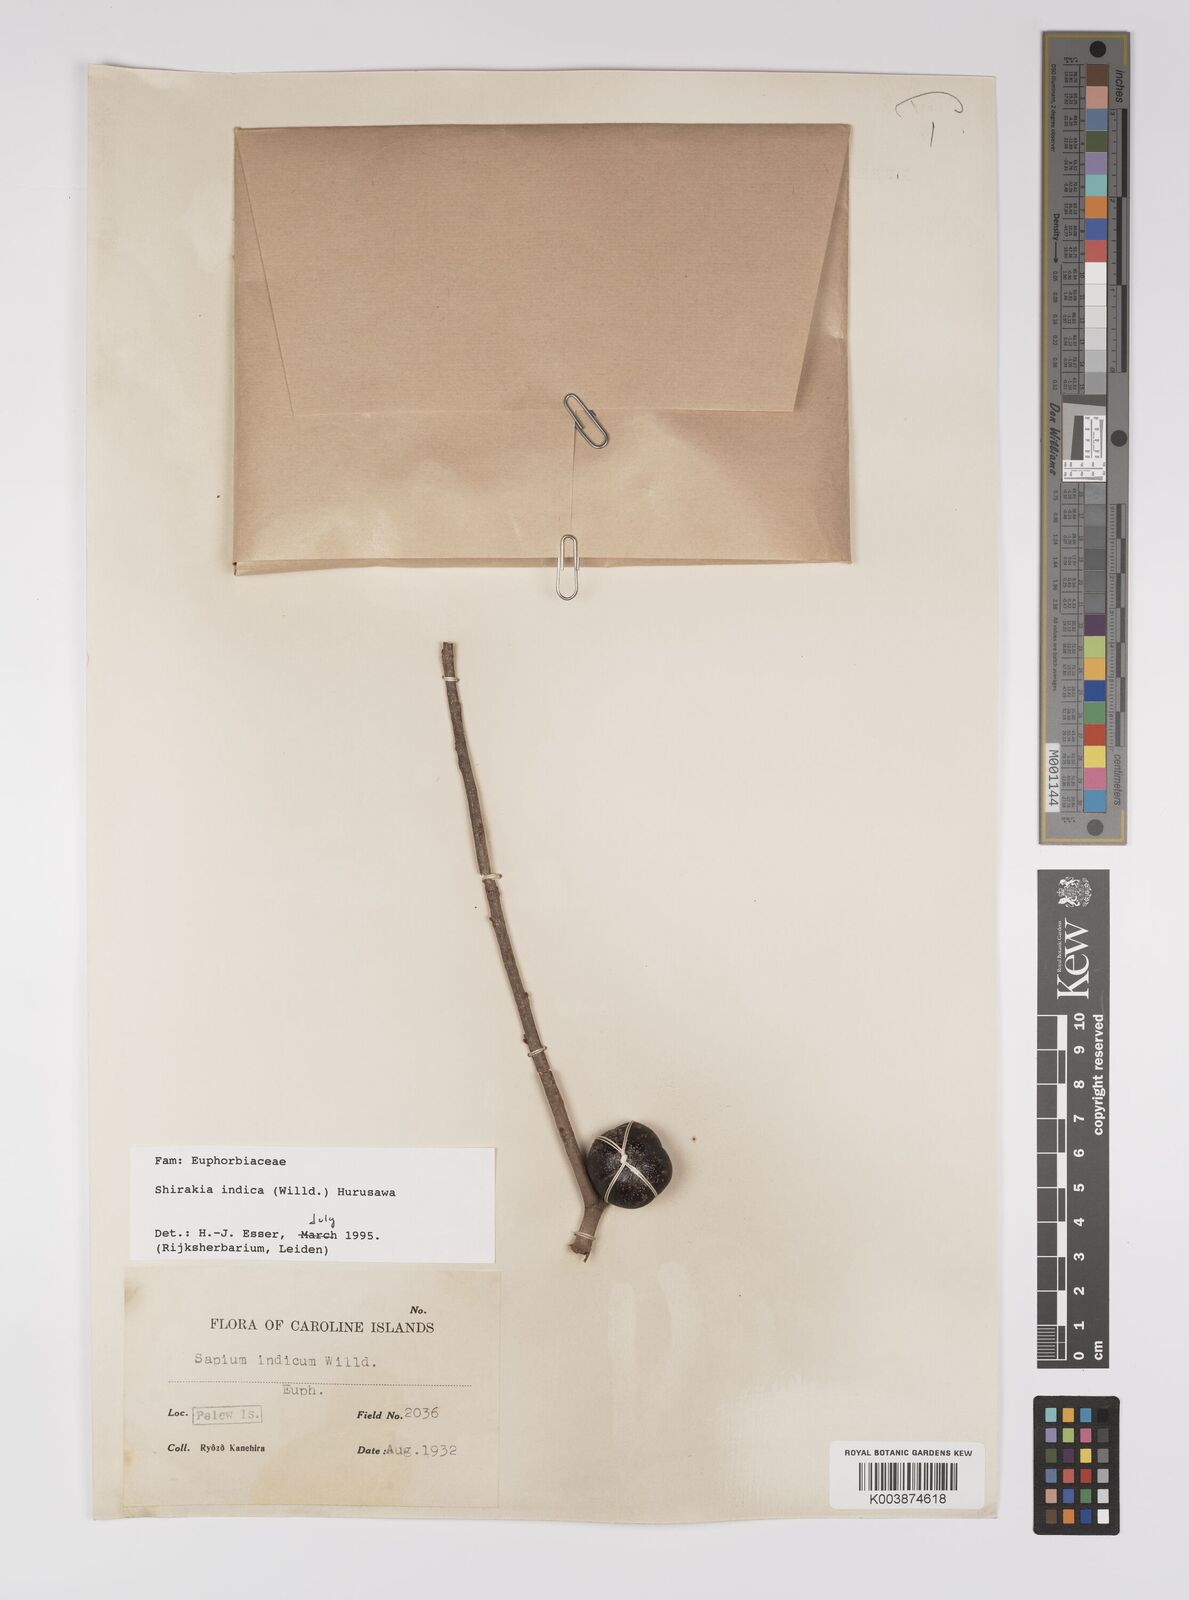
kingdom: Plantae
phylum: Tracheophyta
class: Magnoliopsida
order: Malpighiales
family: Euphorbiaceae
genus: Shirakiopsis
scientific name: Shirakiopsis indica
